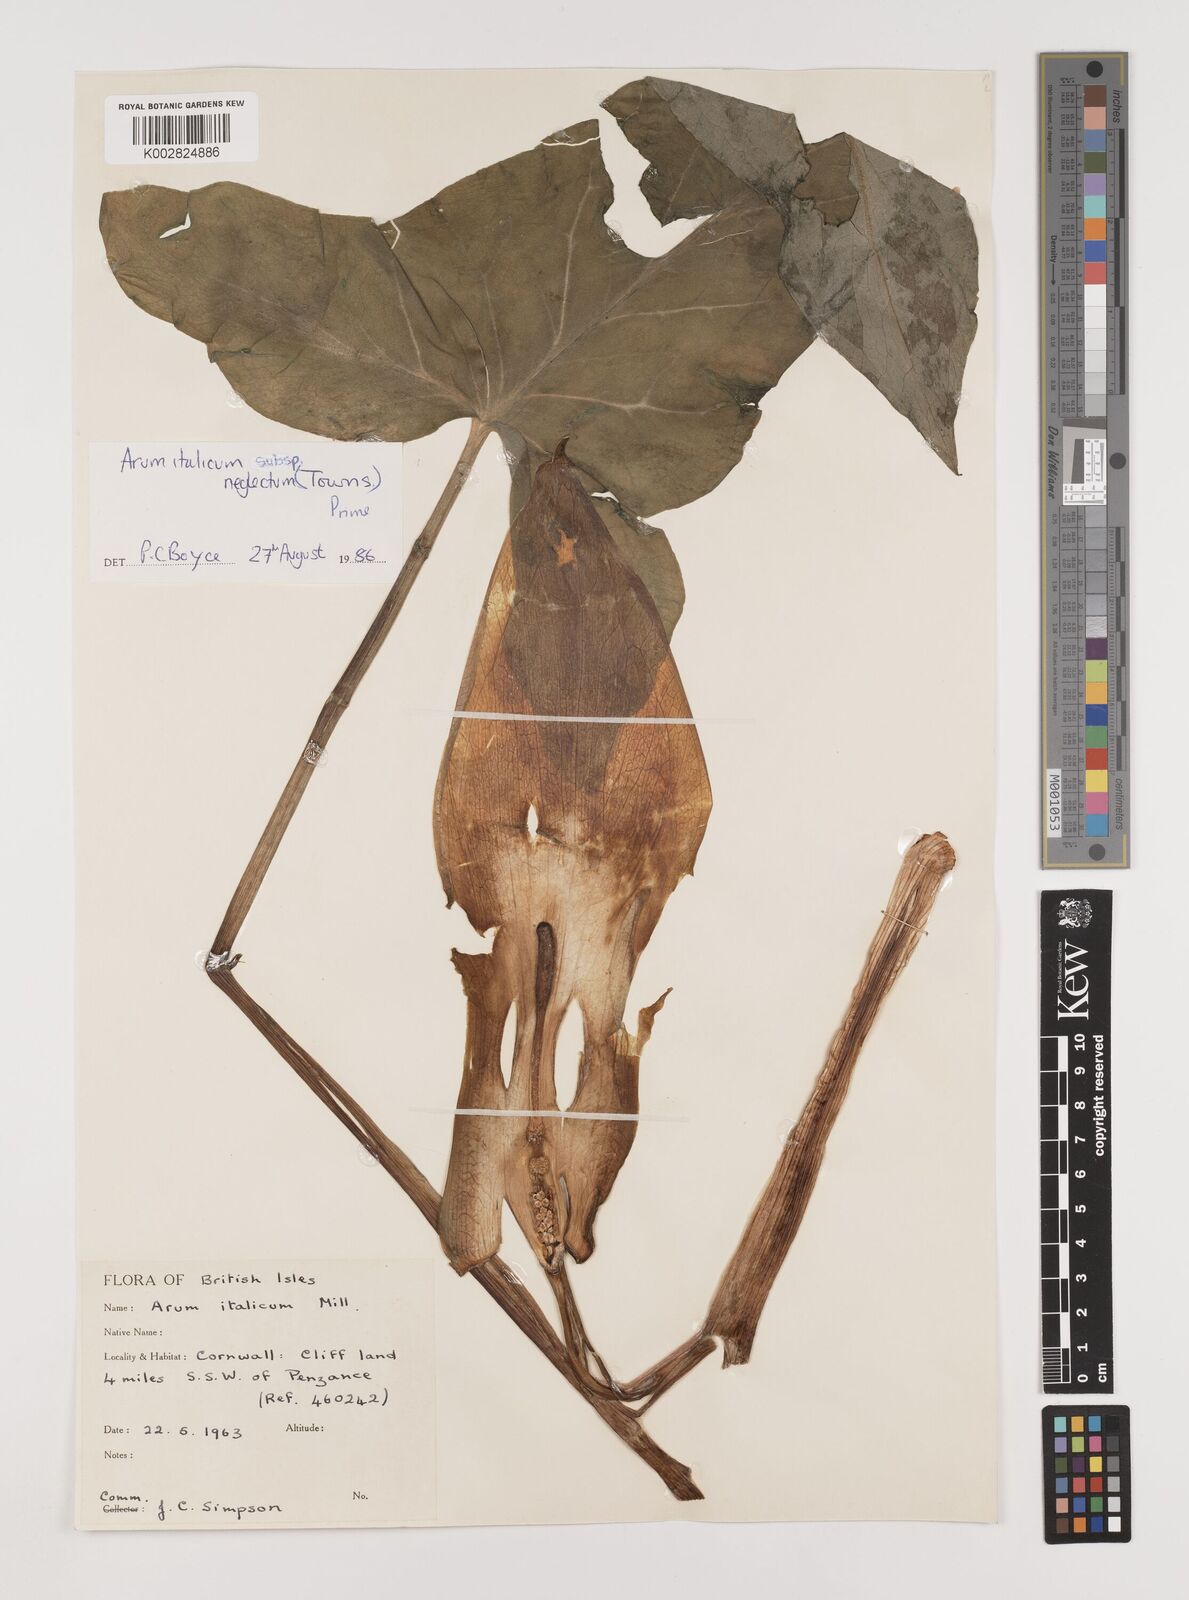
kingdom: Plantae
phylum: Tracheophyta
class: Liliopsida
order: Alismatales
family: Araceae
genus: Arum
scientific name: Arum italicum
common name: Italian lords-and-ladies
